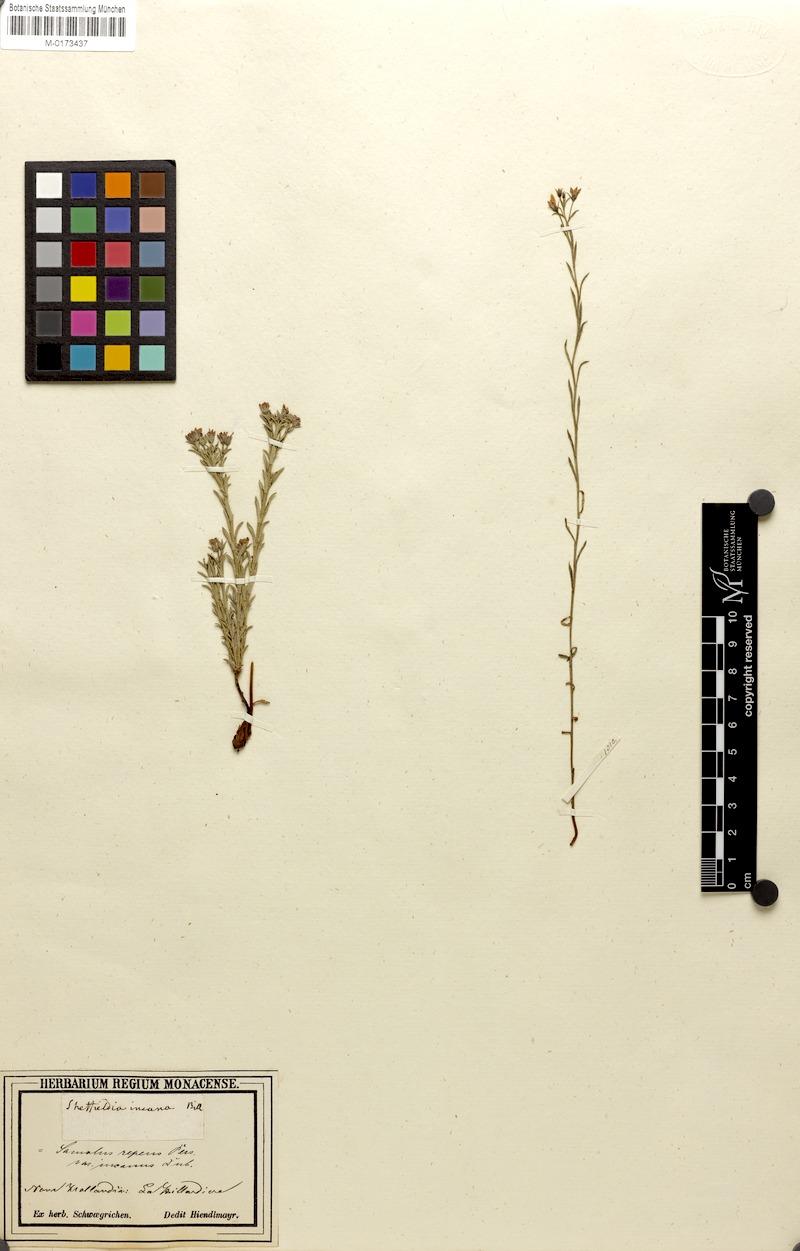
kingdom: Plantae
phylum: Tracheophyta
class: Magnoliopsida
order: Ericales
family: Primulaceae
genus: Samolus
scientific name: Samolus repens
